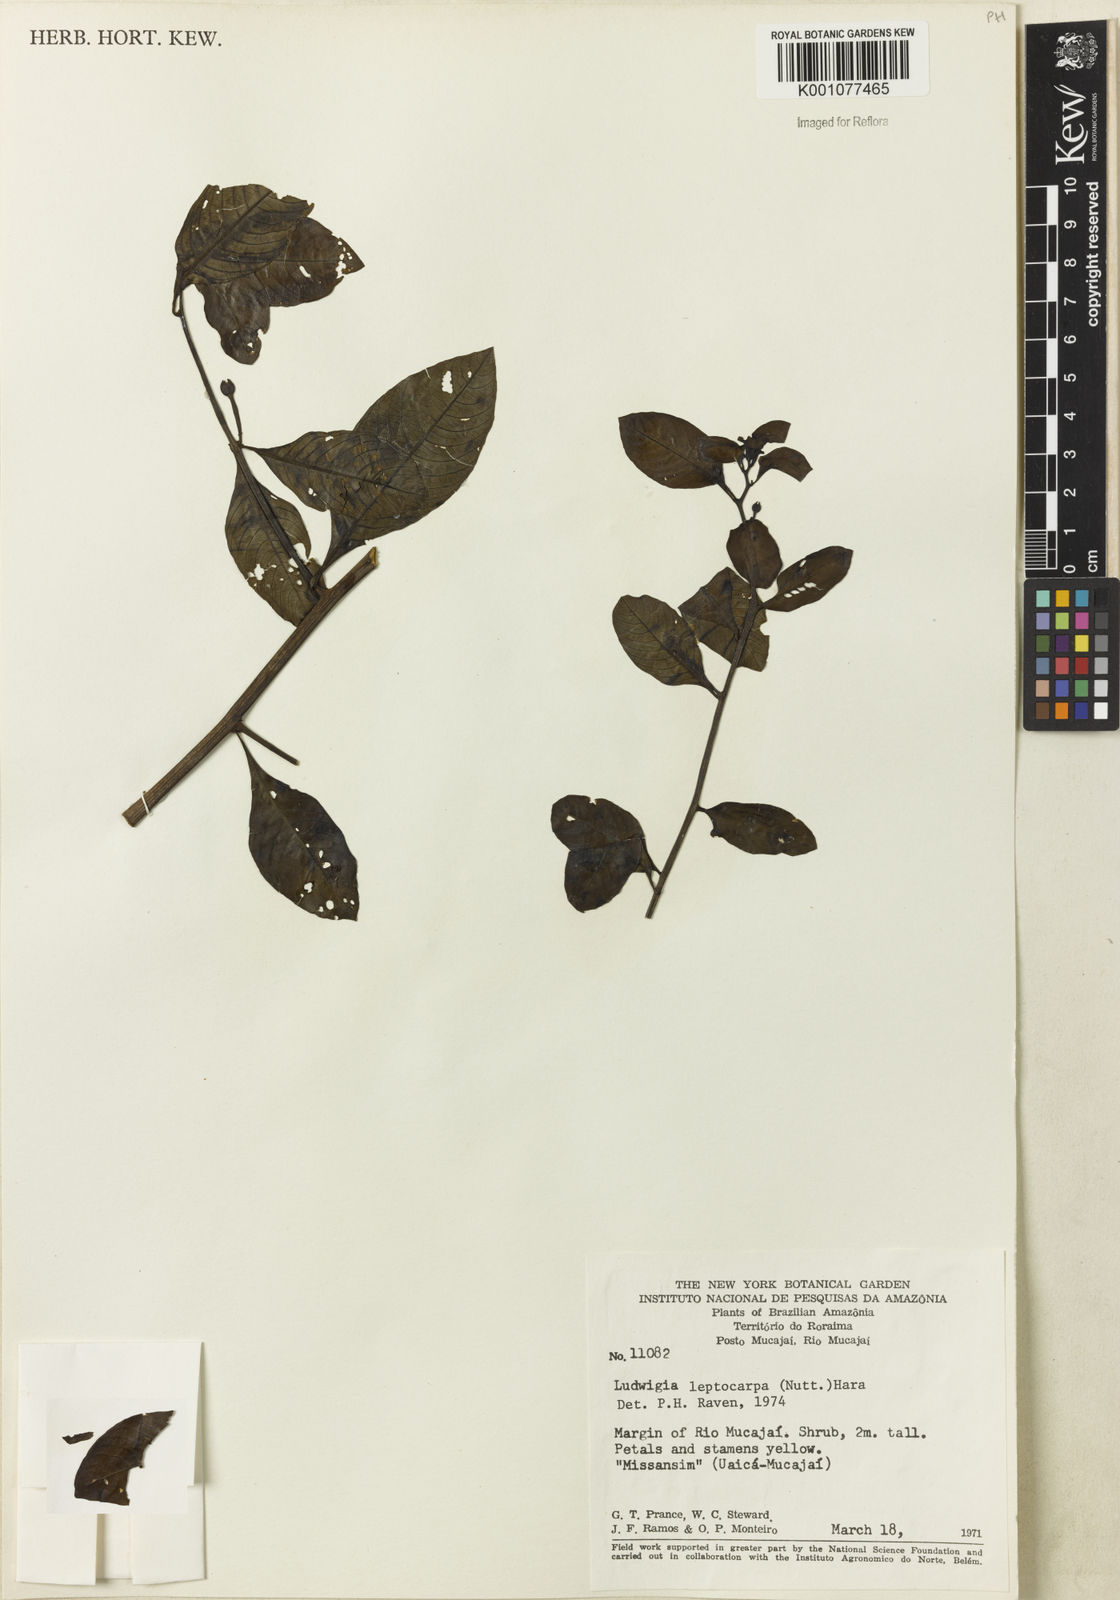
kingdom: Plantae
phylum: Tracheophyta
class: Magnoliopsida
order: Myrtales
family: Onagraceae
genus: Ludwigia
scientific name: Ludwigia leptocarpa
